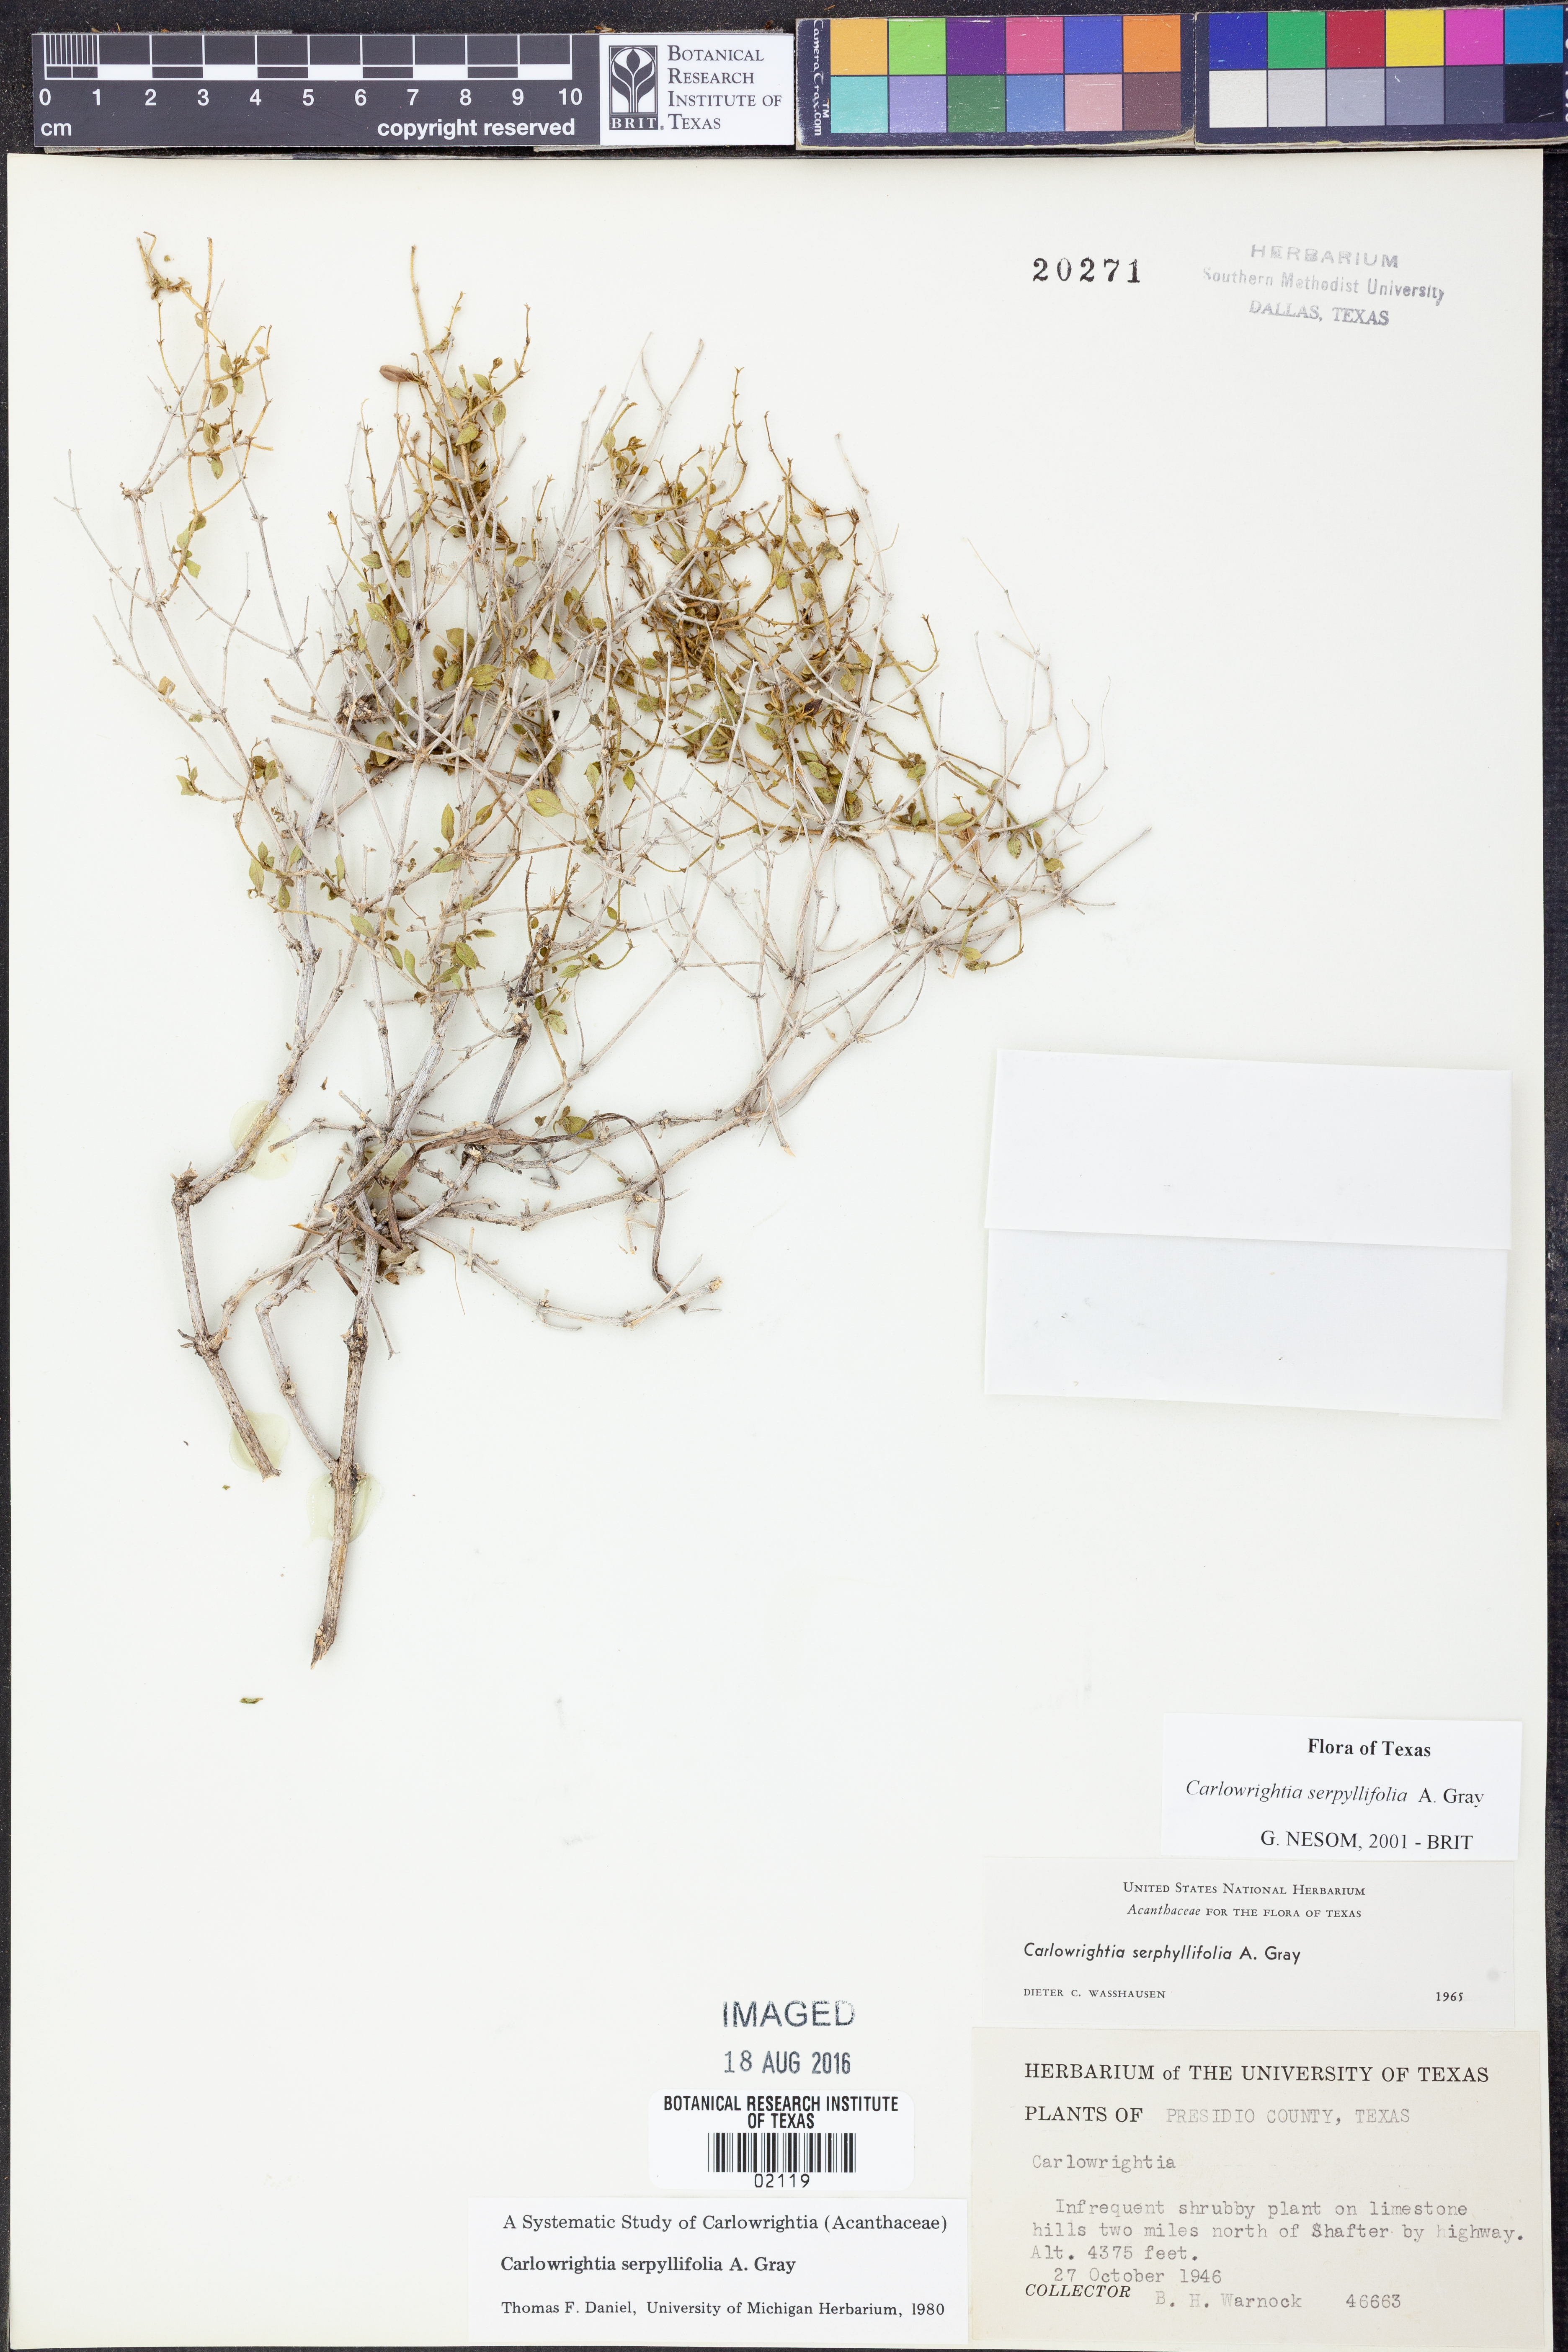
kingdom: Plantae
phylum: Tracheophyta
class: Magnoliopsida
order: Lamiales
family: Acanthaceae
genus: Carlowrightia
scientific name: Carlowrightia serpyllifolia
